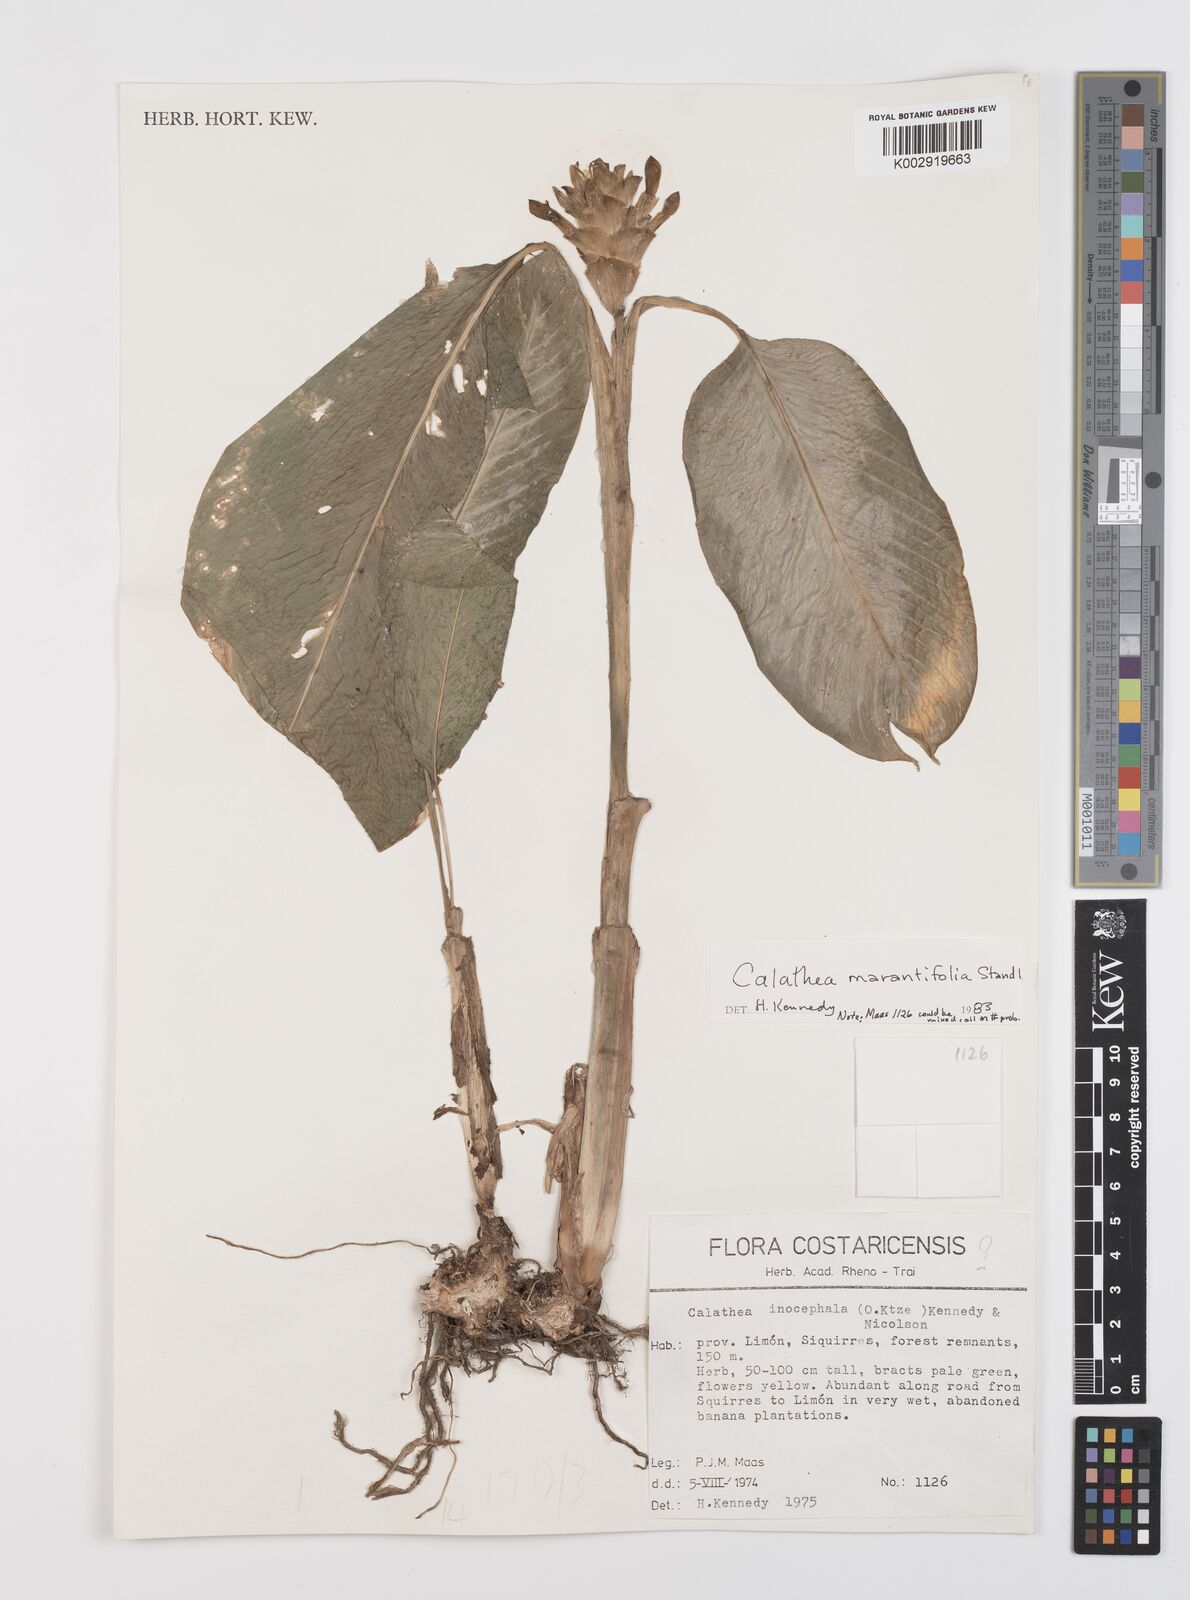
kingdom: Plantae
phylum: Tracheophyta
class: Liliopsida
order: Zingiberales
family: Marantaceae
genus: Goeppertia
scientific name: Goeppertia marantifolia
